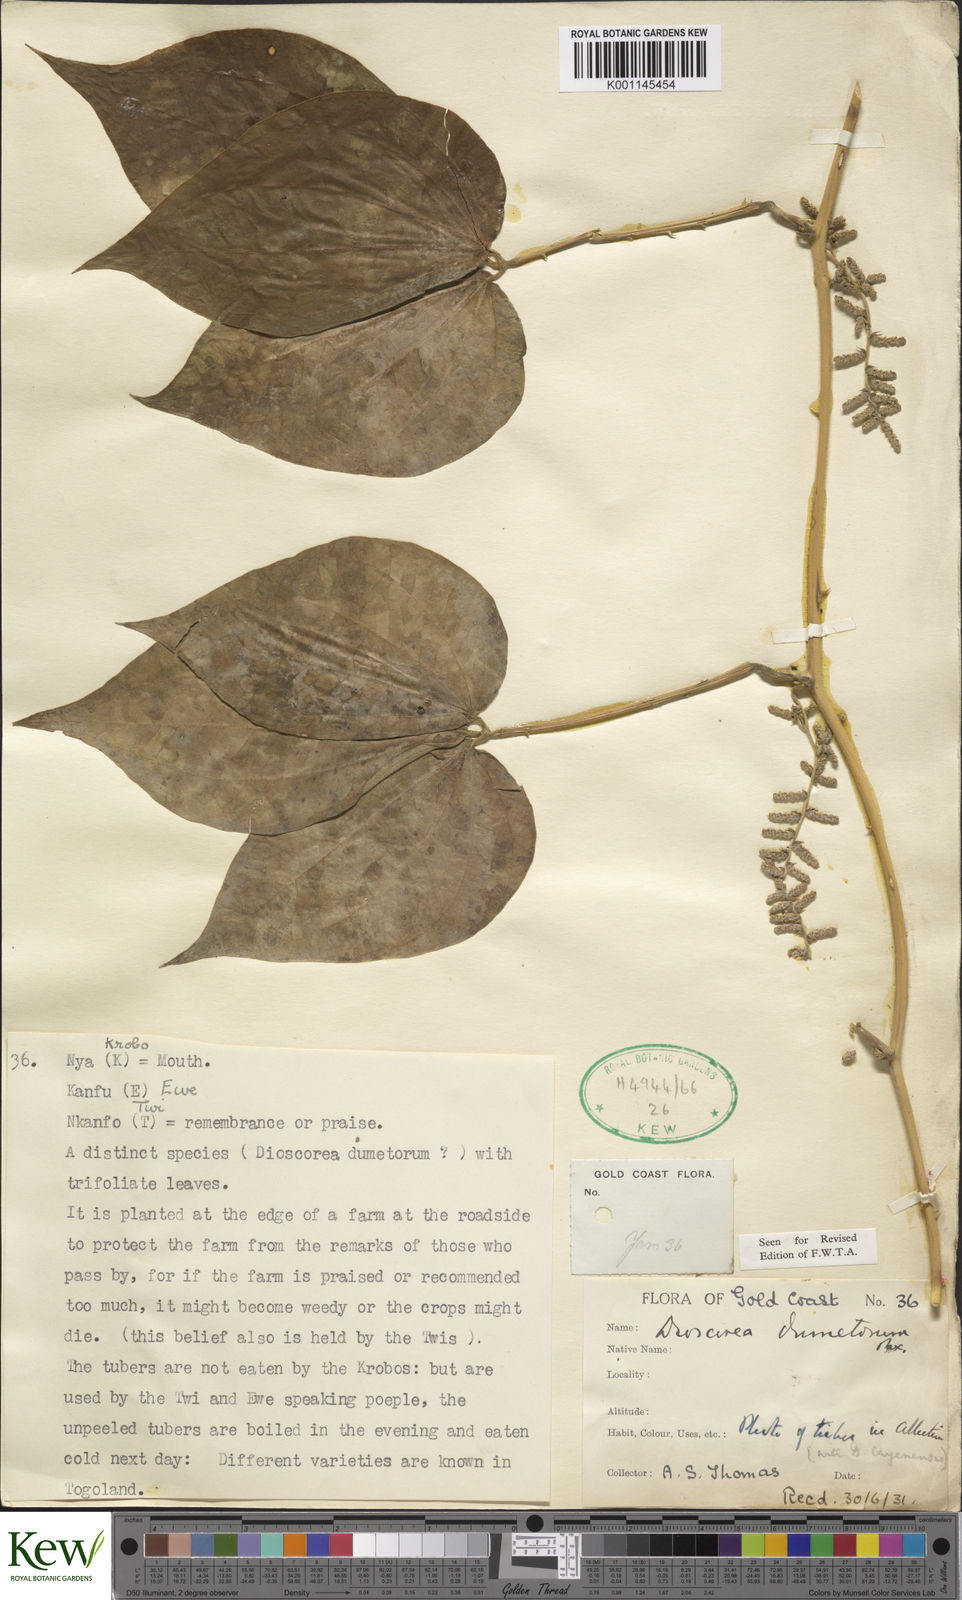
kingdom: Plantae
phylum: Tracheophyta
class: Liliopsida
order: Dioscoreales
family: Dioscoreaceae
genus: Dioscorea
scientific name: Dioscorea dumetorum
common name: African bitter yam
